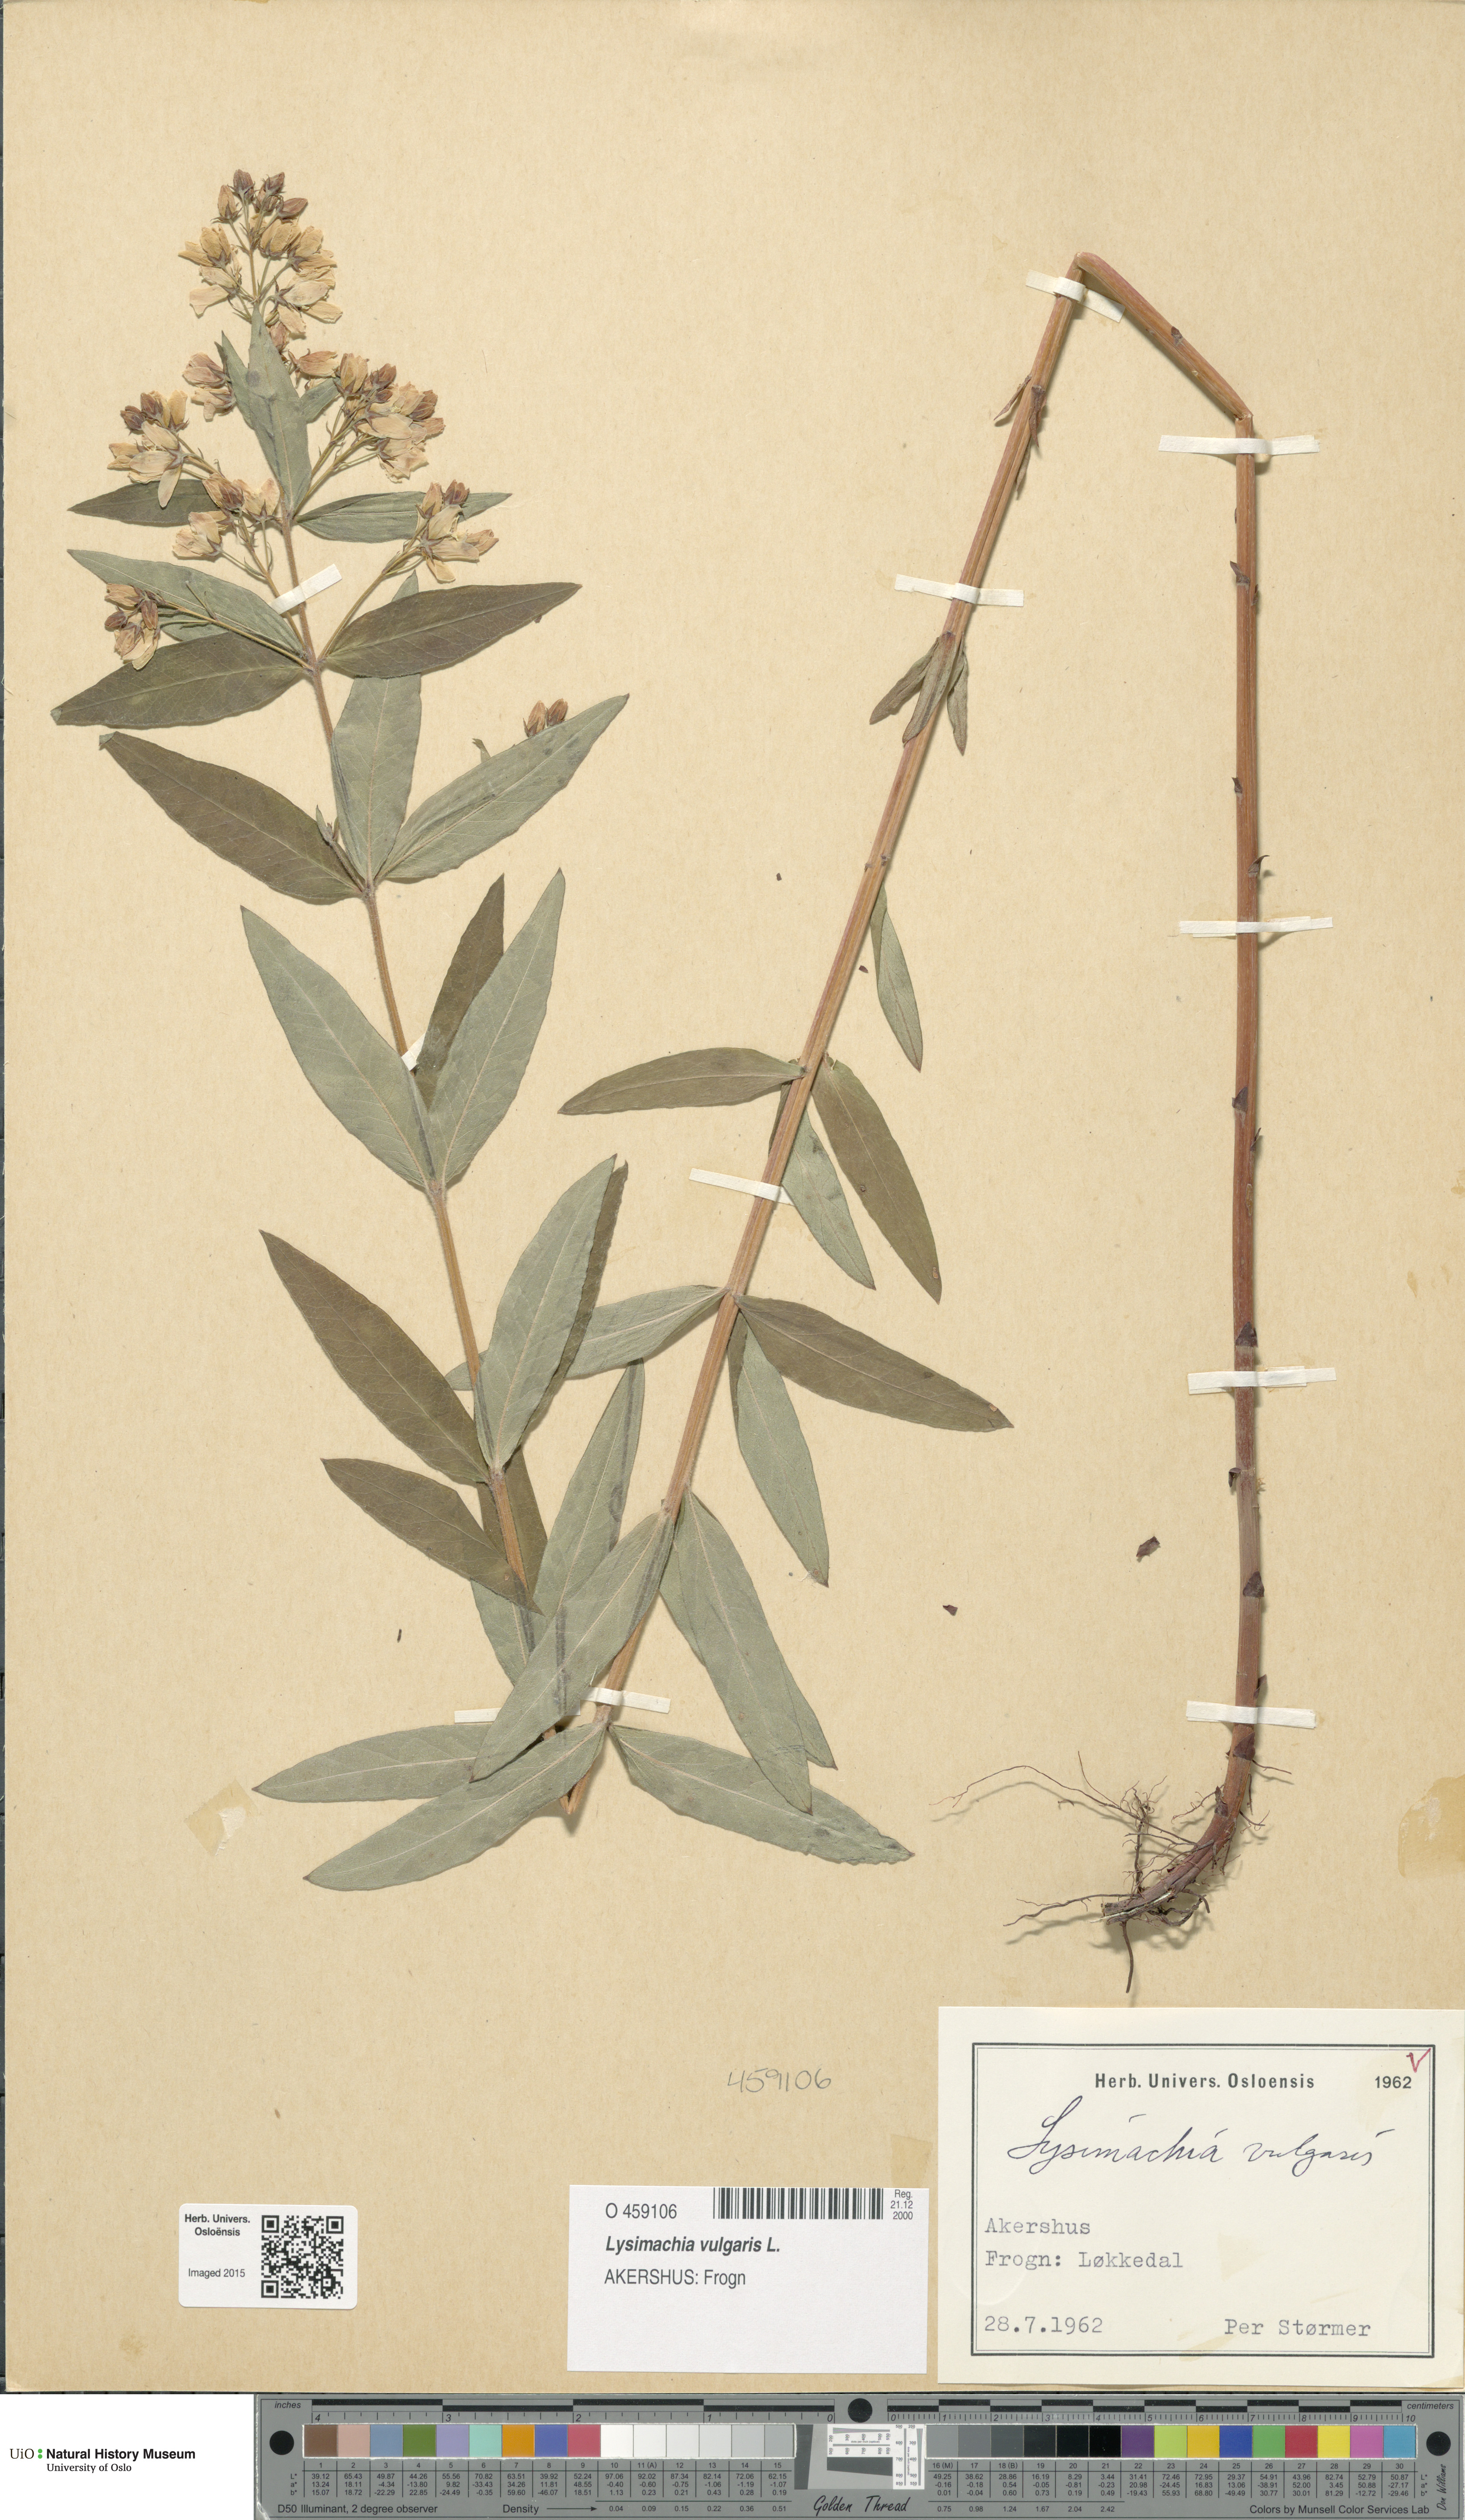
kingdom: Plantae
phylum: Tracheophyta
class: Magnoliopsida
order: Ericales
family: Primulaceae
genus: Lysimachia
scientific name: Lysimachia vulgaris
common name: Yellow loosestrife
